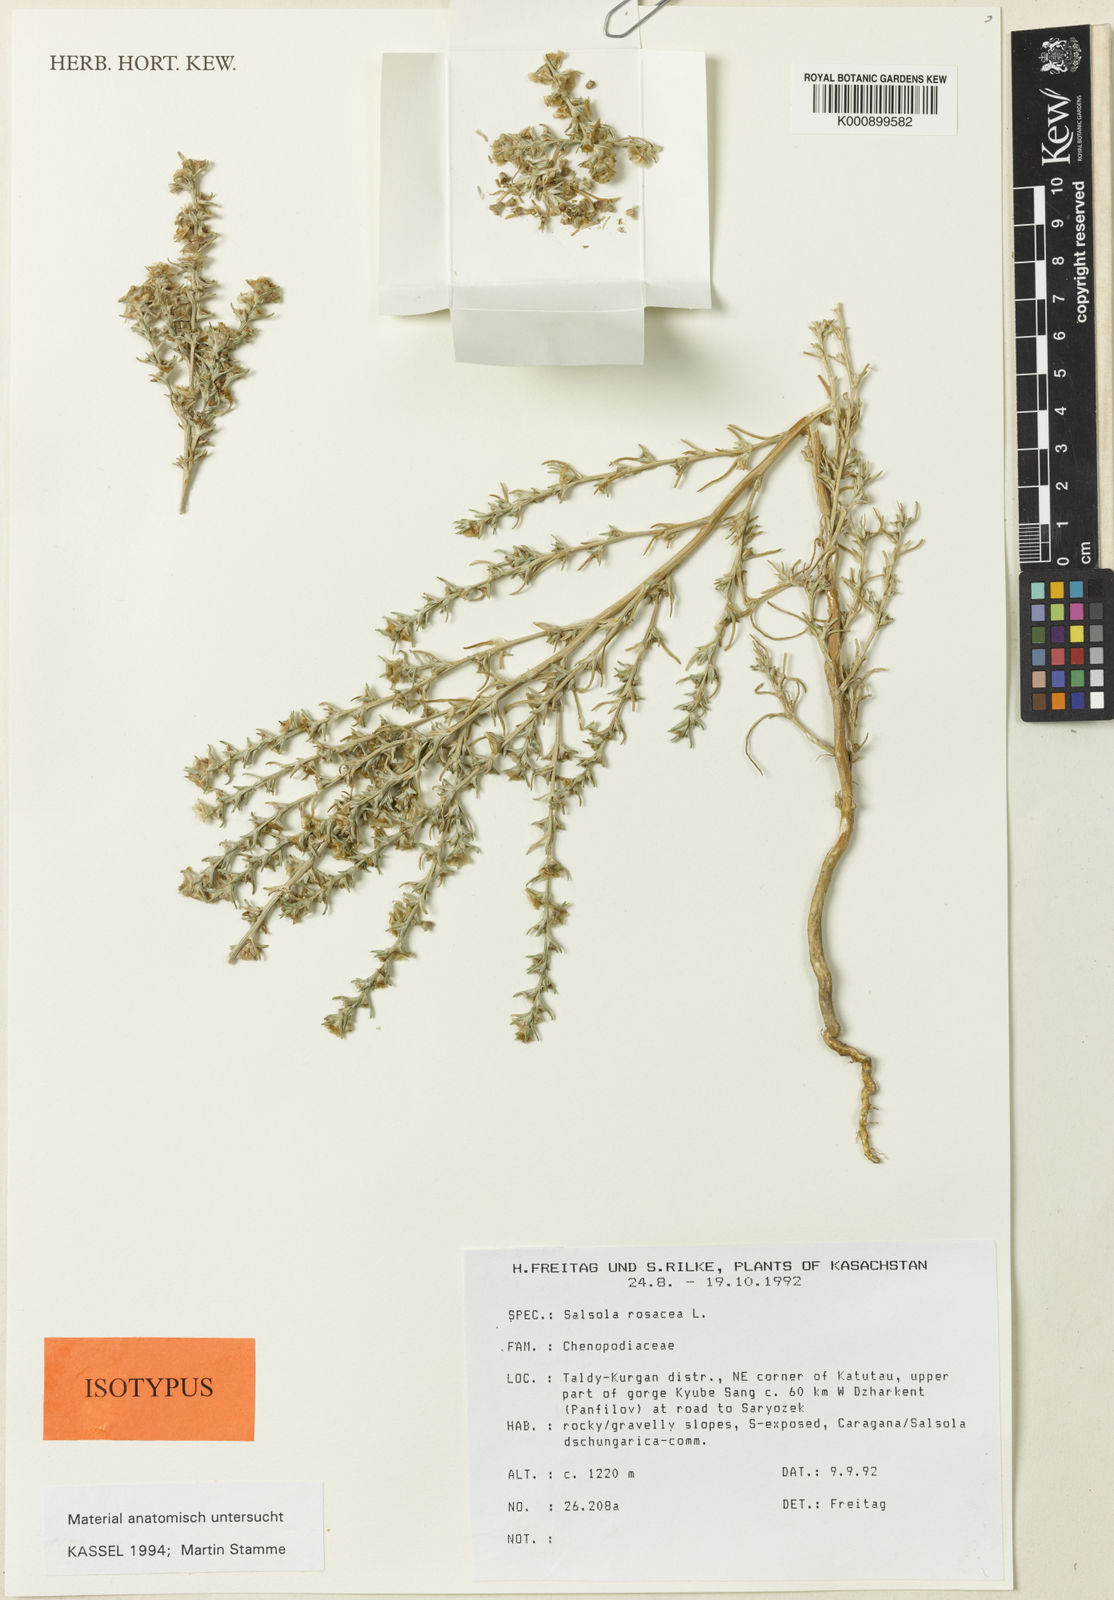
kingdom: Plantae
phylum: Tracheophyta
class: Magnoliopsida
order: Caryophyllales
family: Amaranthaceae
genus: Salsola
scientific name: Salsola rosacea
